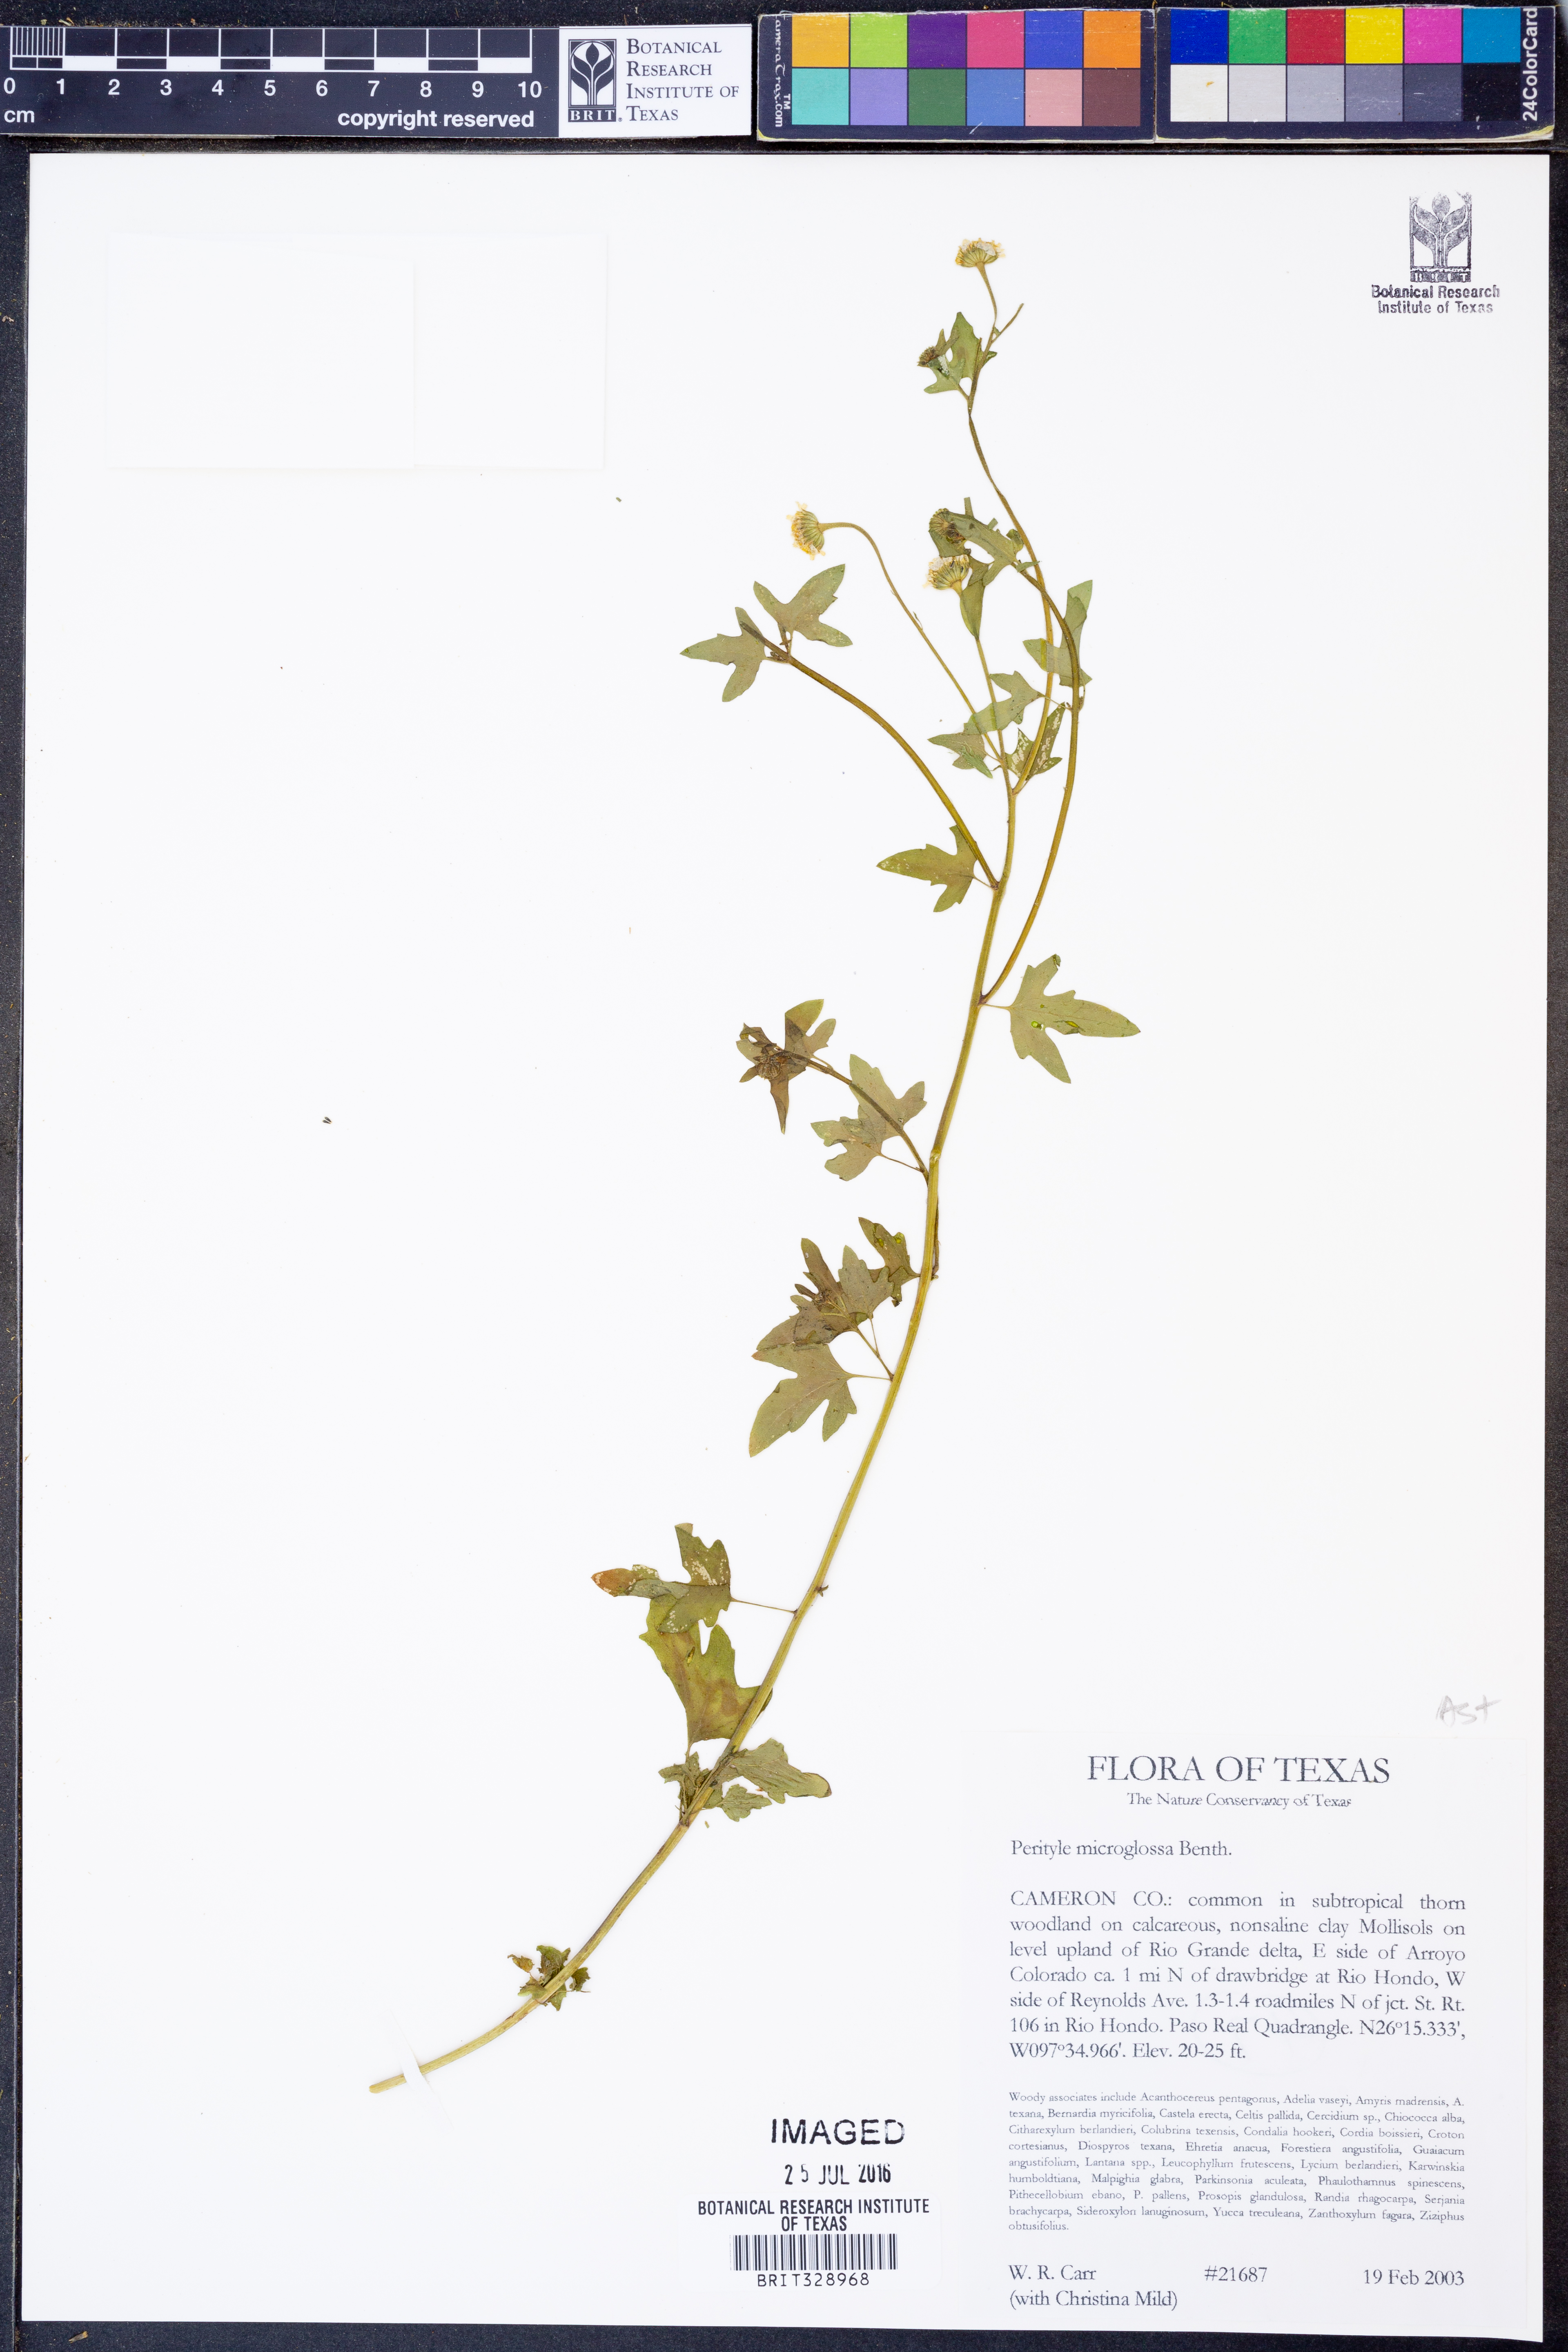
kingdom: Plantae
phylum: Tracheophyta
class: Magnoliopsida
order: Asterales
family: Asteraceae
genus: Galinsogeopsis
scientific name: Galinsogeopsis spilanthoides
